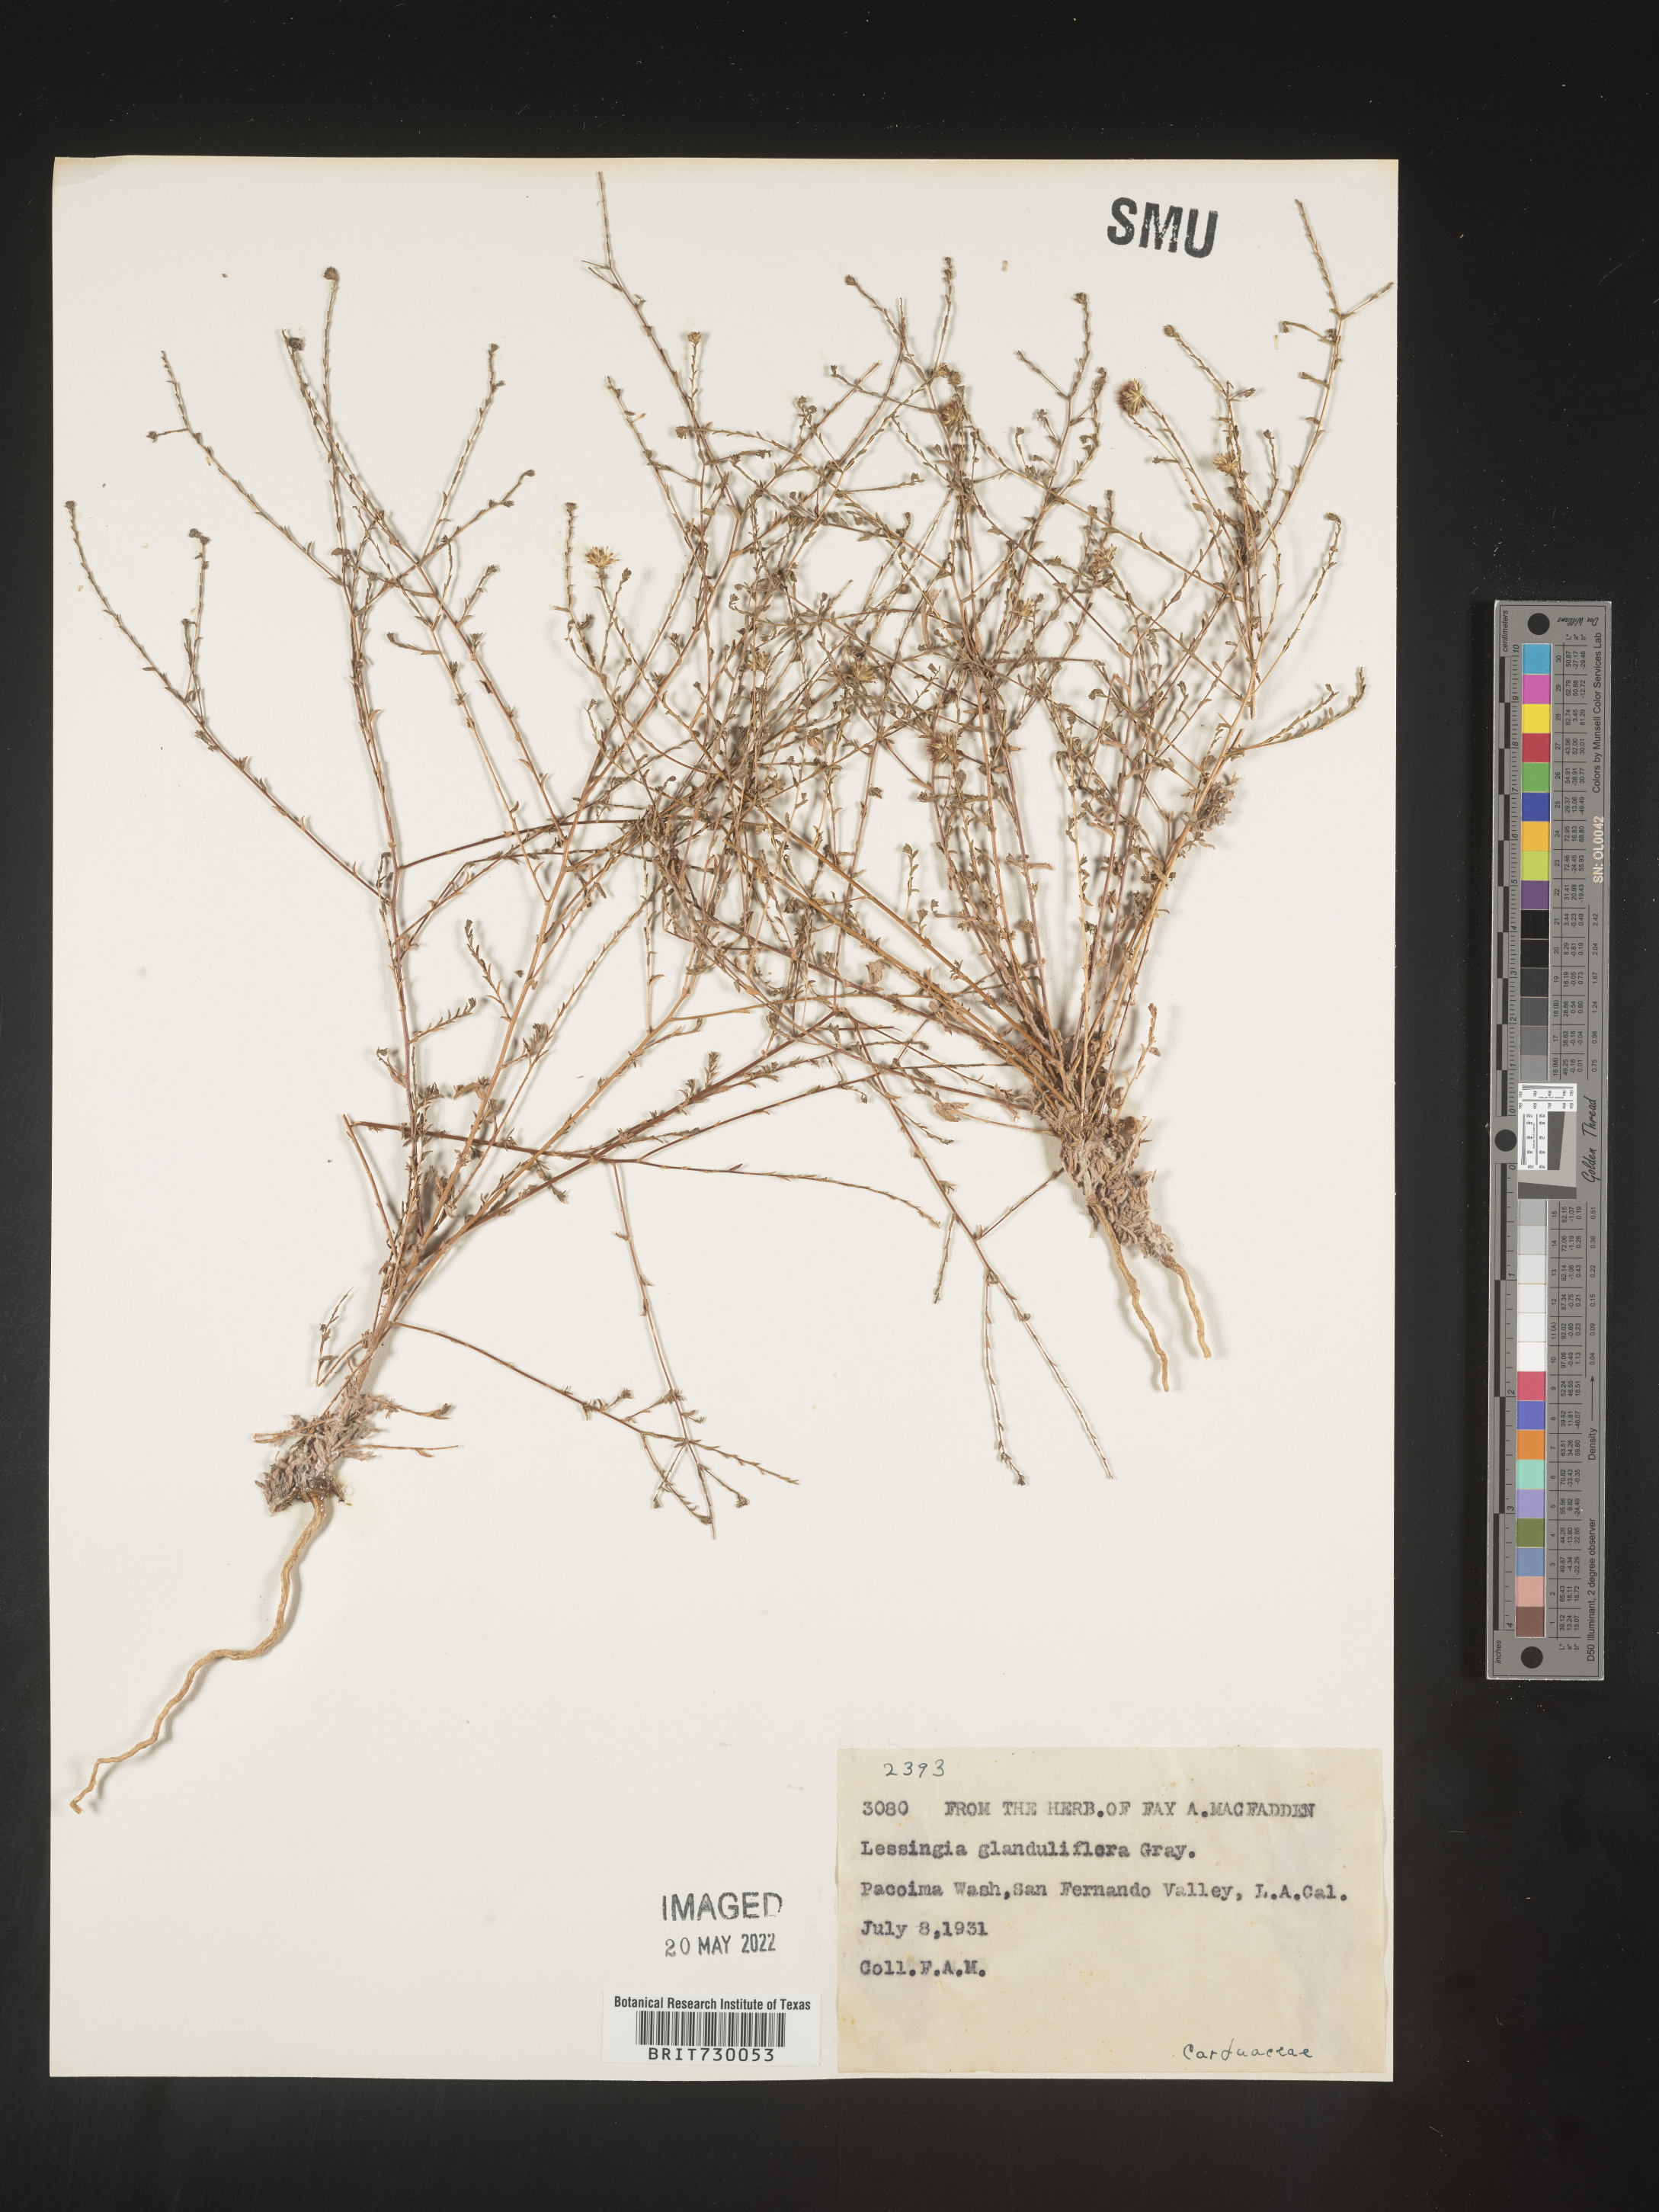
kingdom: Plantae
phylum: Tracheophyta
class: Magnoliopsida
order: Asterales
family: Asteraceae
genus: Lessingia
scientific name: Lessingia
